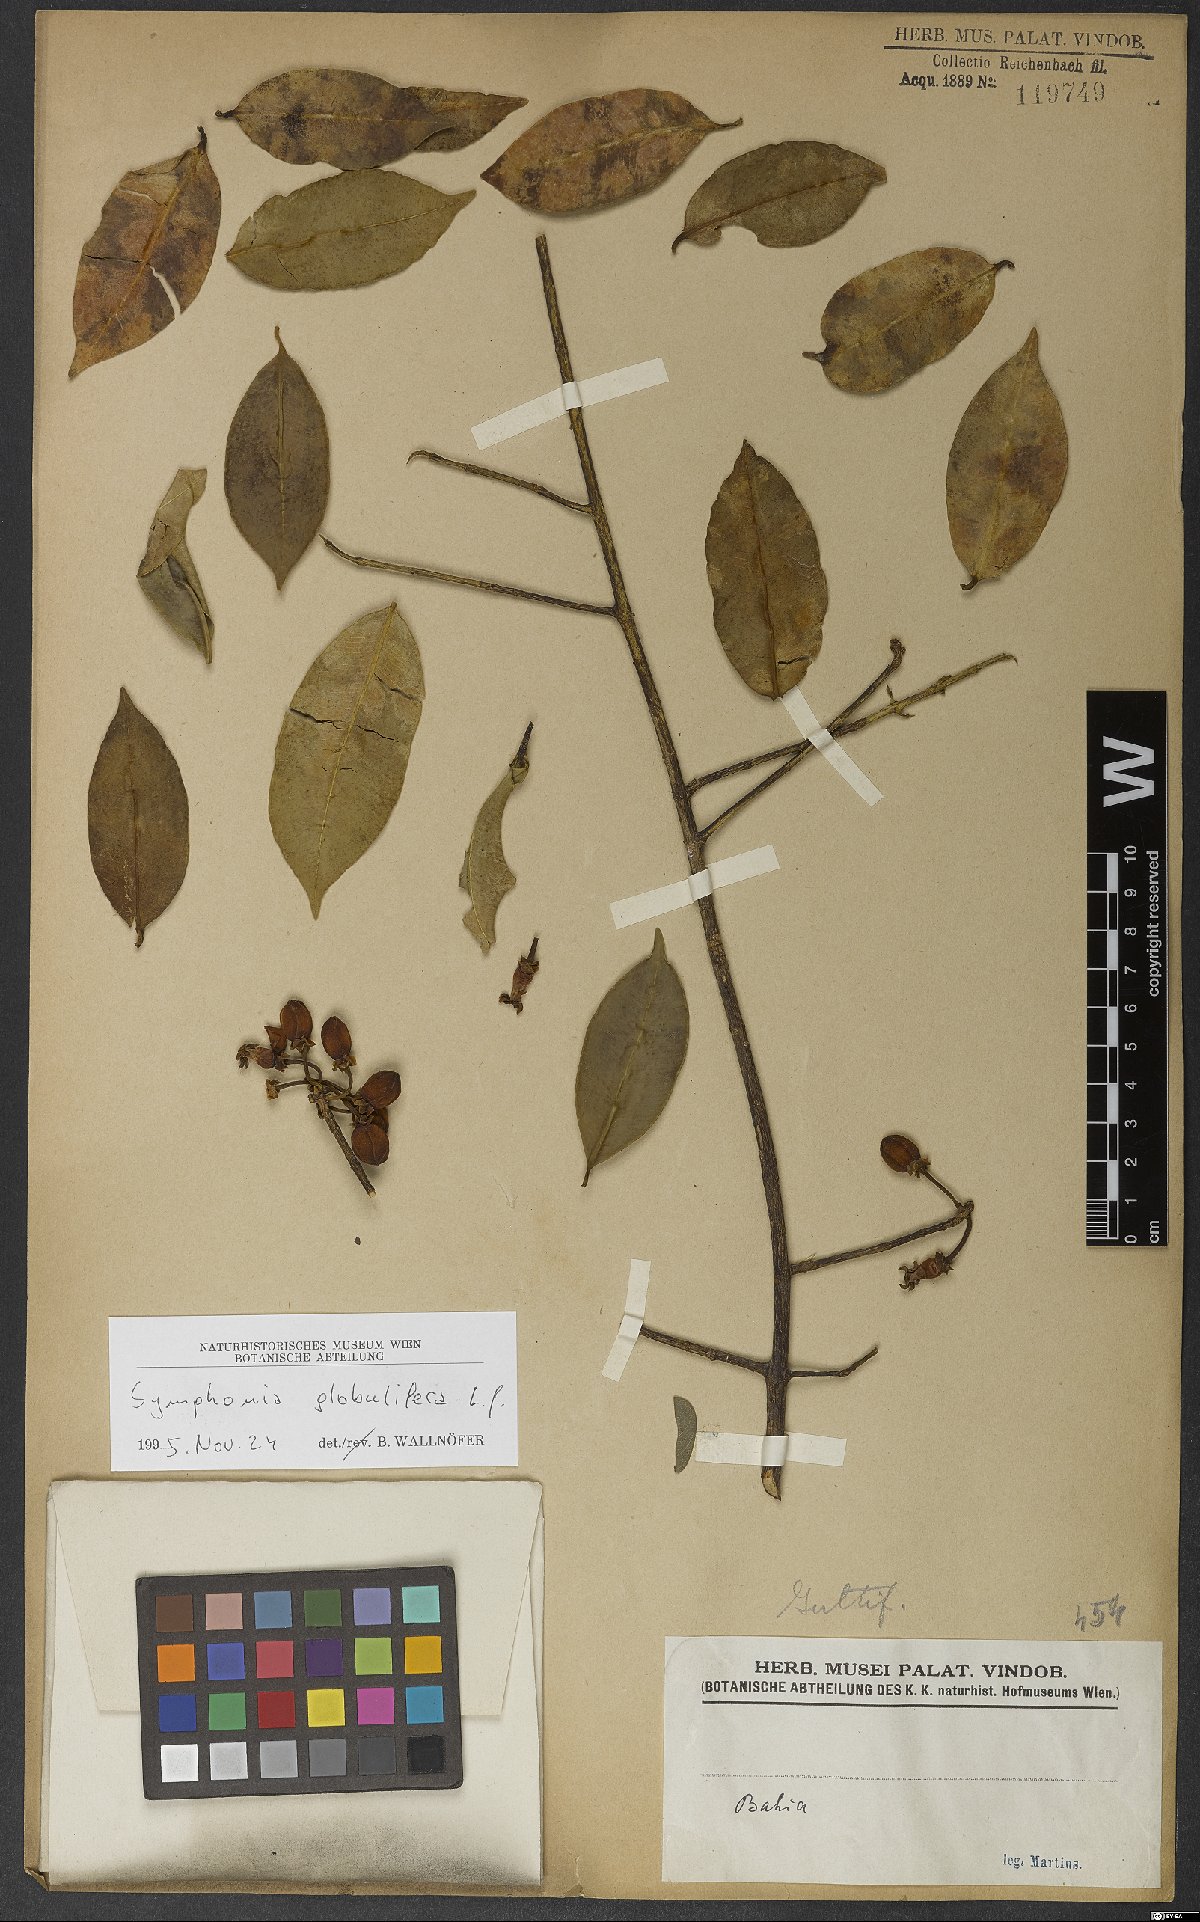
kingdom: Plantae
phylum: Tracheophyta
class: Magnoliopsida
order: Malpighiales
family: Clusiaceae
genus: Symphonia
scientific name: Symphonia globulifera
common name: Boarwood
